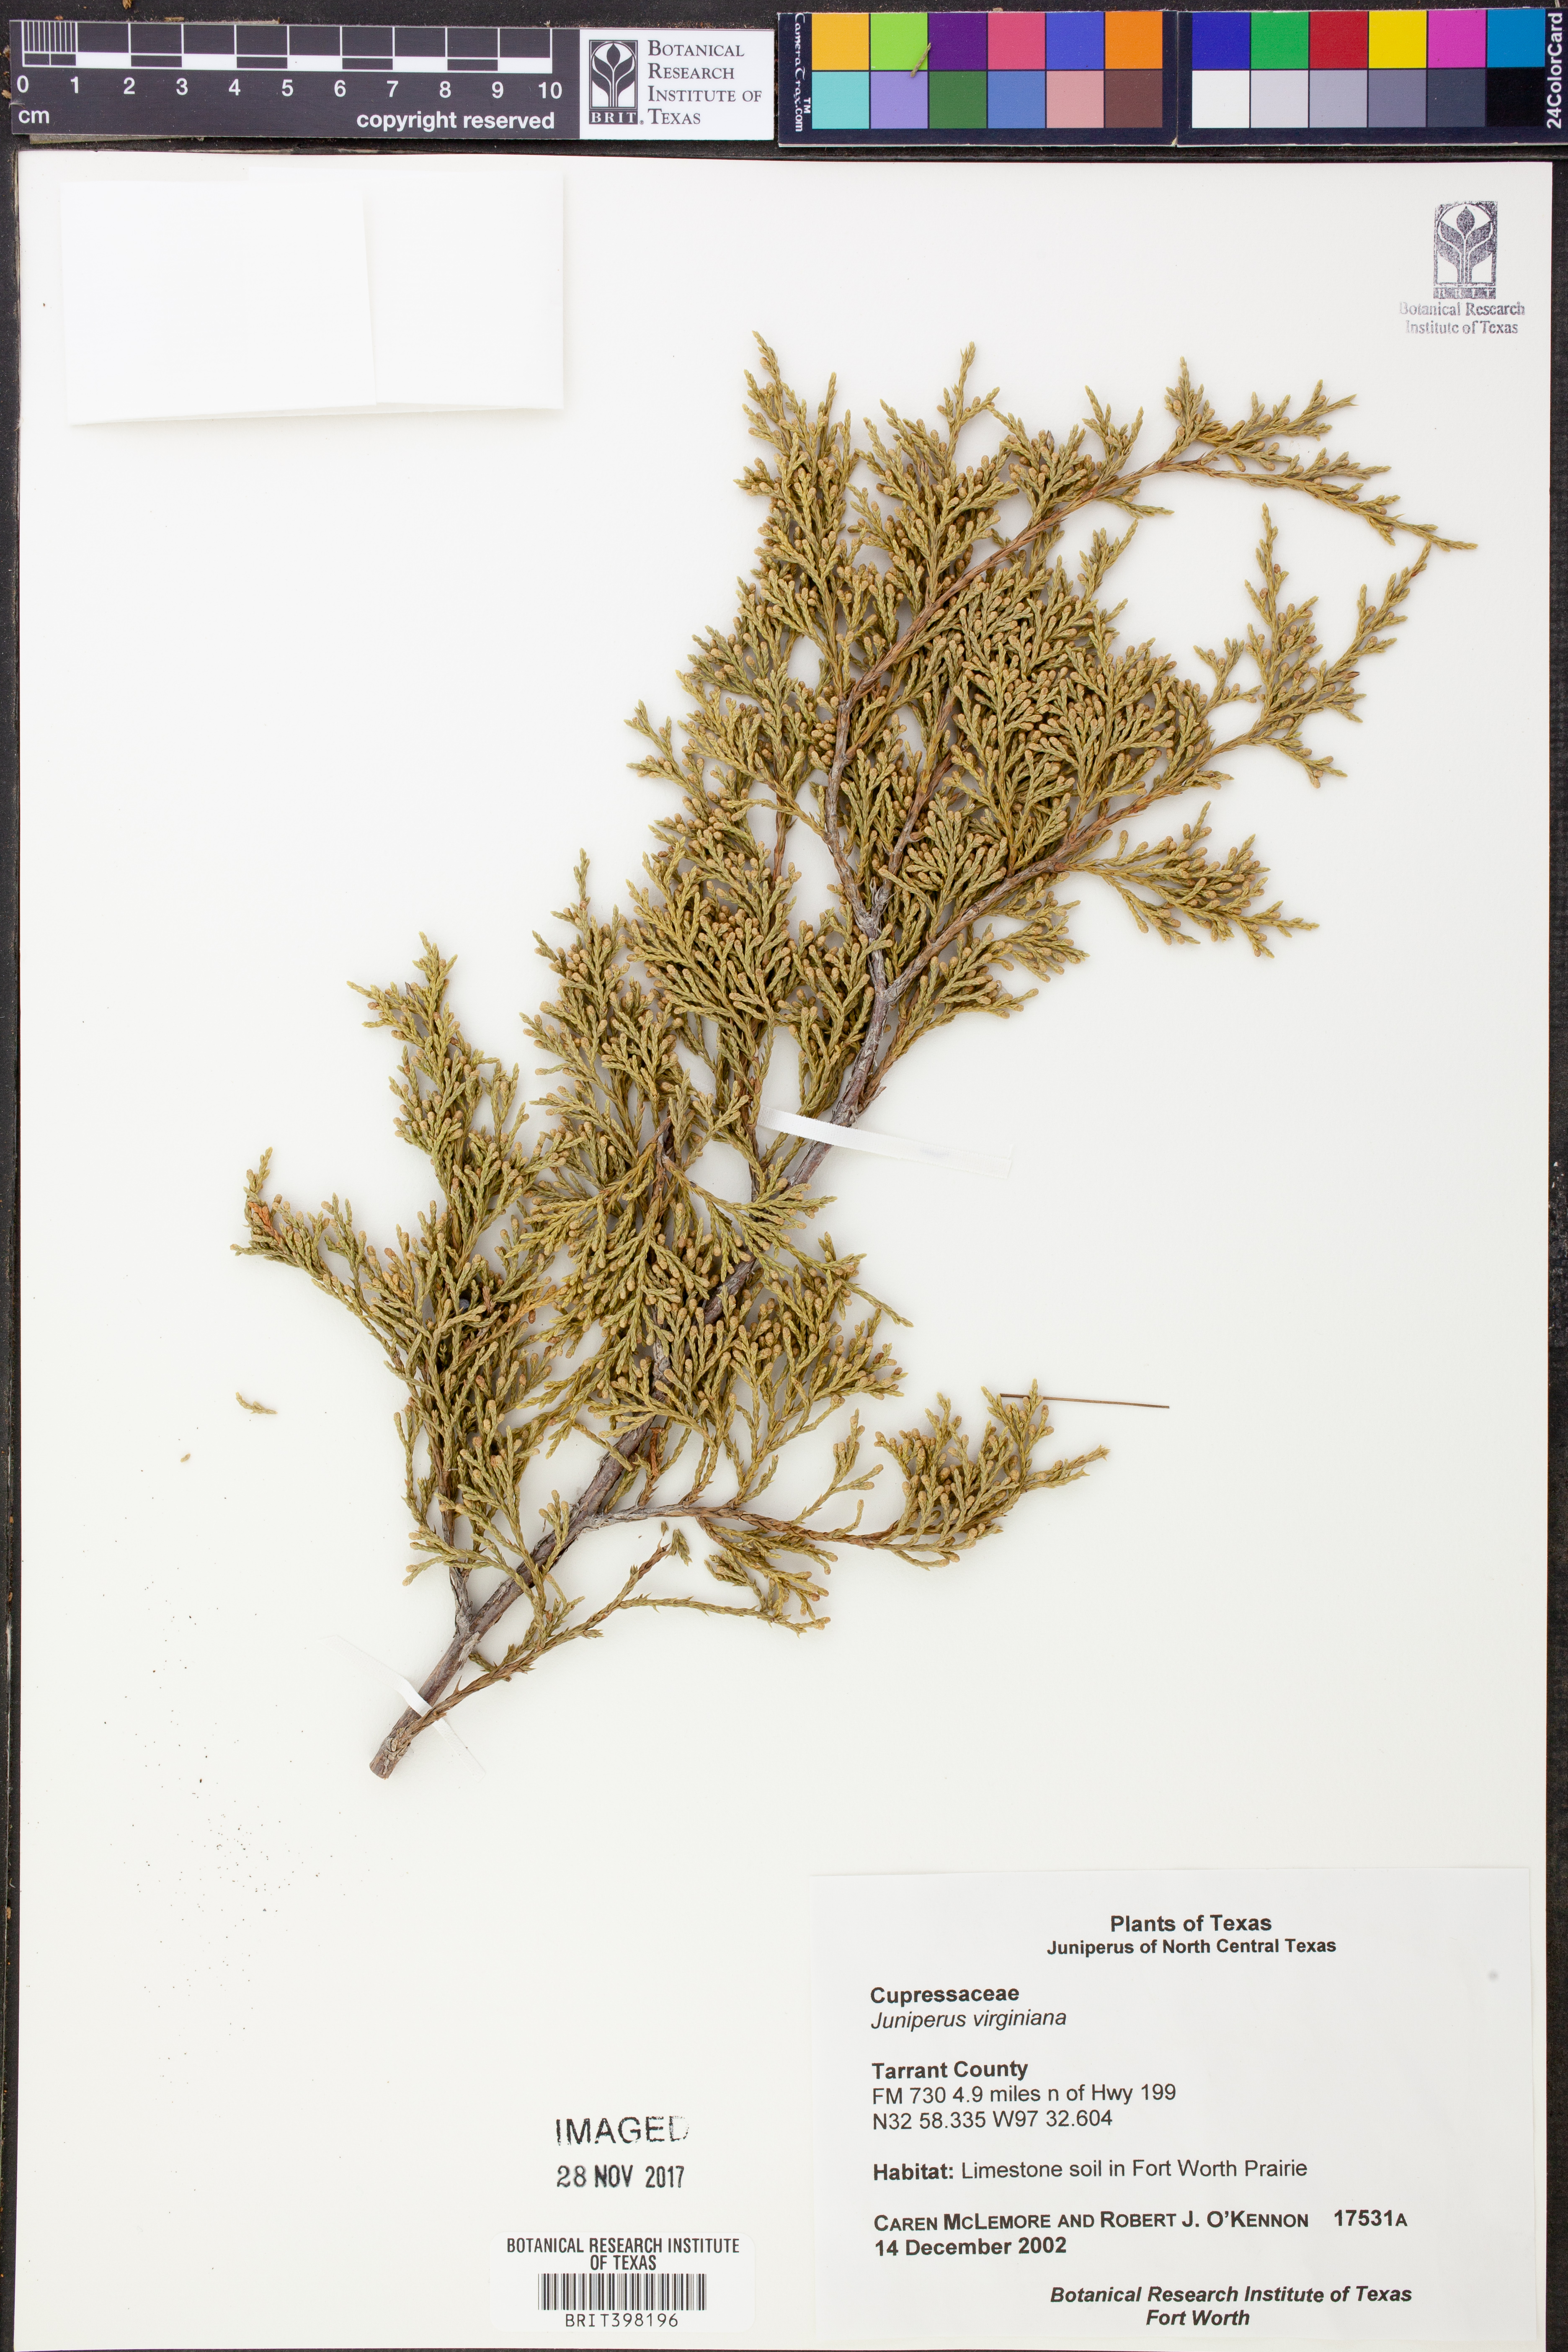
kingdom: Plantae
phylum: Tracheophyta
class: Pinopsida
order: Pinales
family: Cupressaceae
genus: Juniperus
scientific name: Juniperus virginiana
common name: Red juniper
